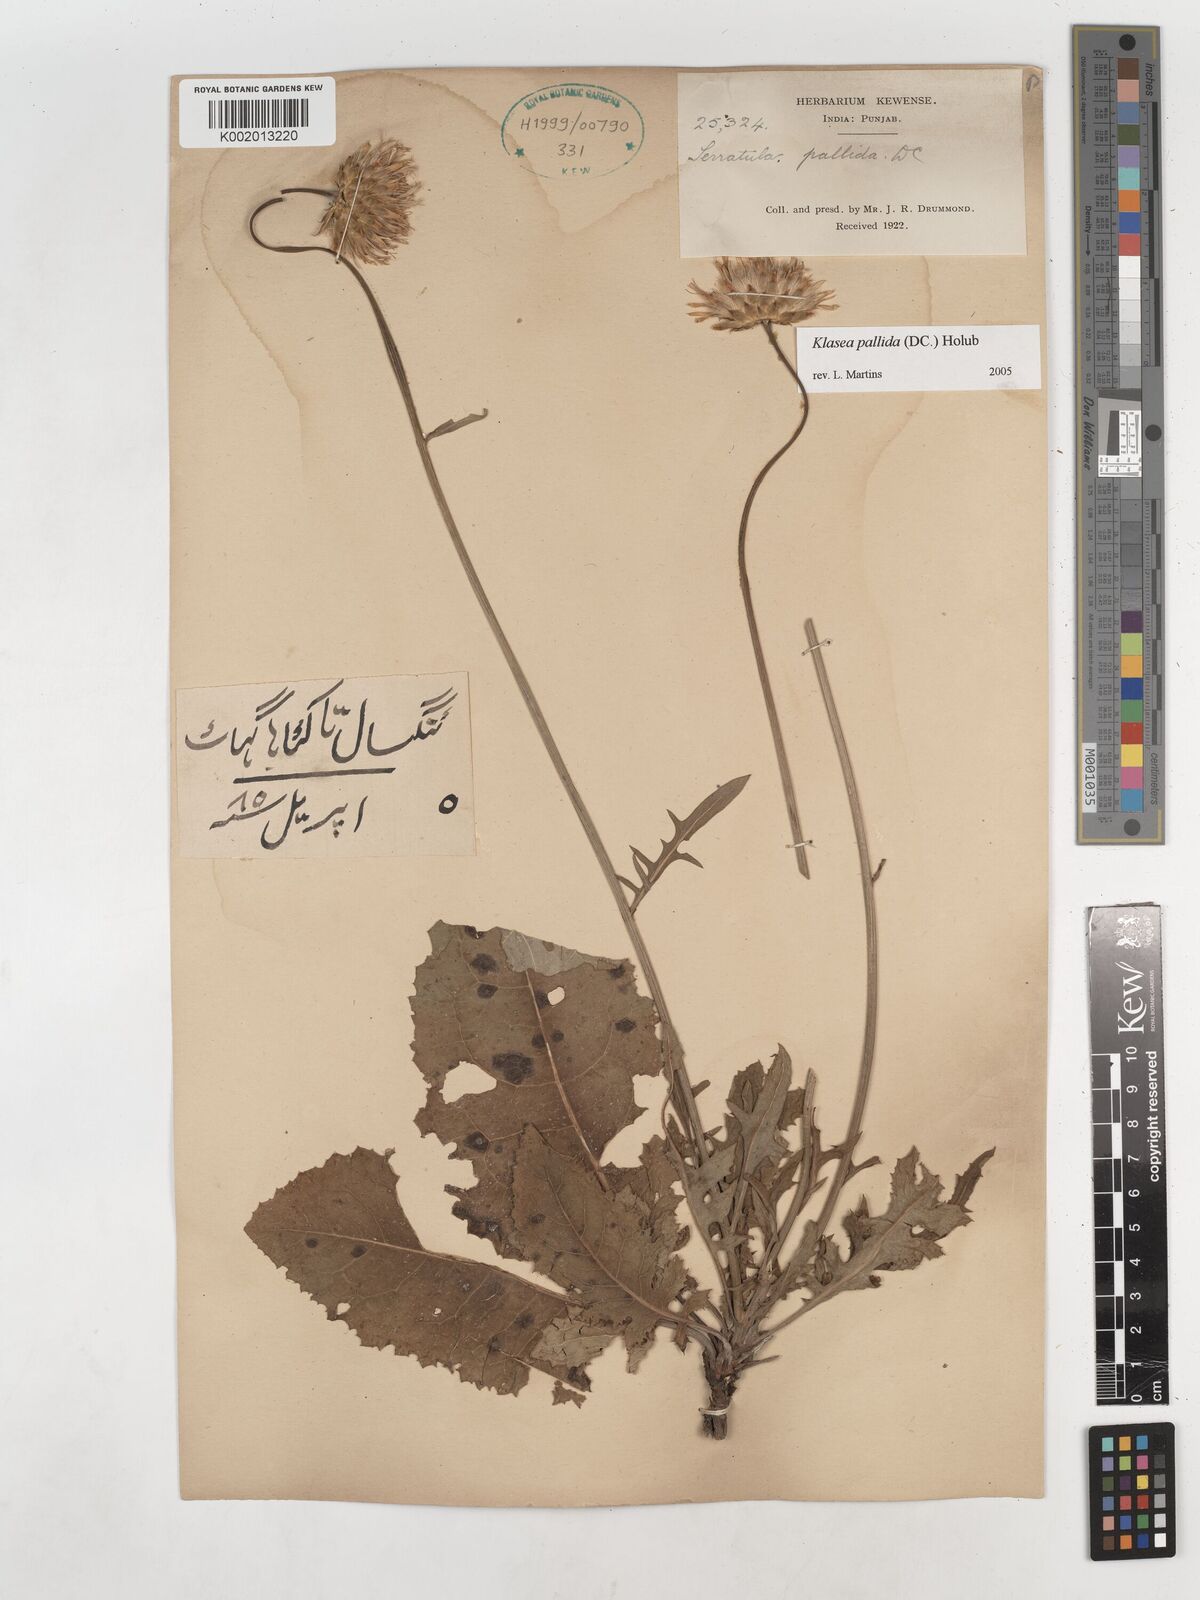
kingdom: Plantae
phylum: Tracheophyta
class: Magnoliopsida
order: Asterales
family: Asteraceae
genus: Klasea
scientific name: Klasea pallida
